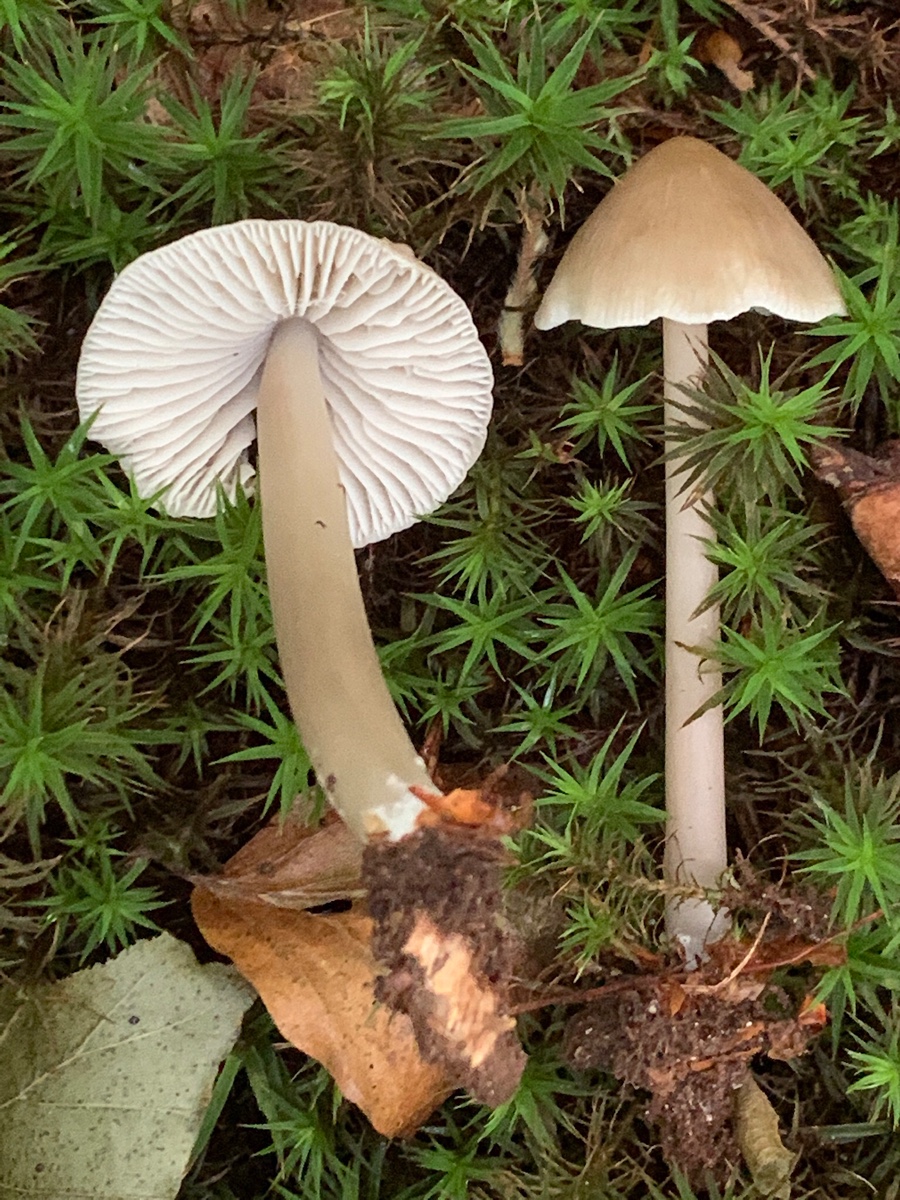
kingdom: Fungi
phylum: Basidiomycota
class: Agaricomycetes
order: Agaricales
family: Mycenaceae
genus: Mycena
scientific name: Mycena galericulata
